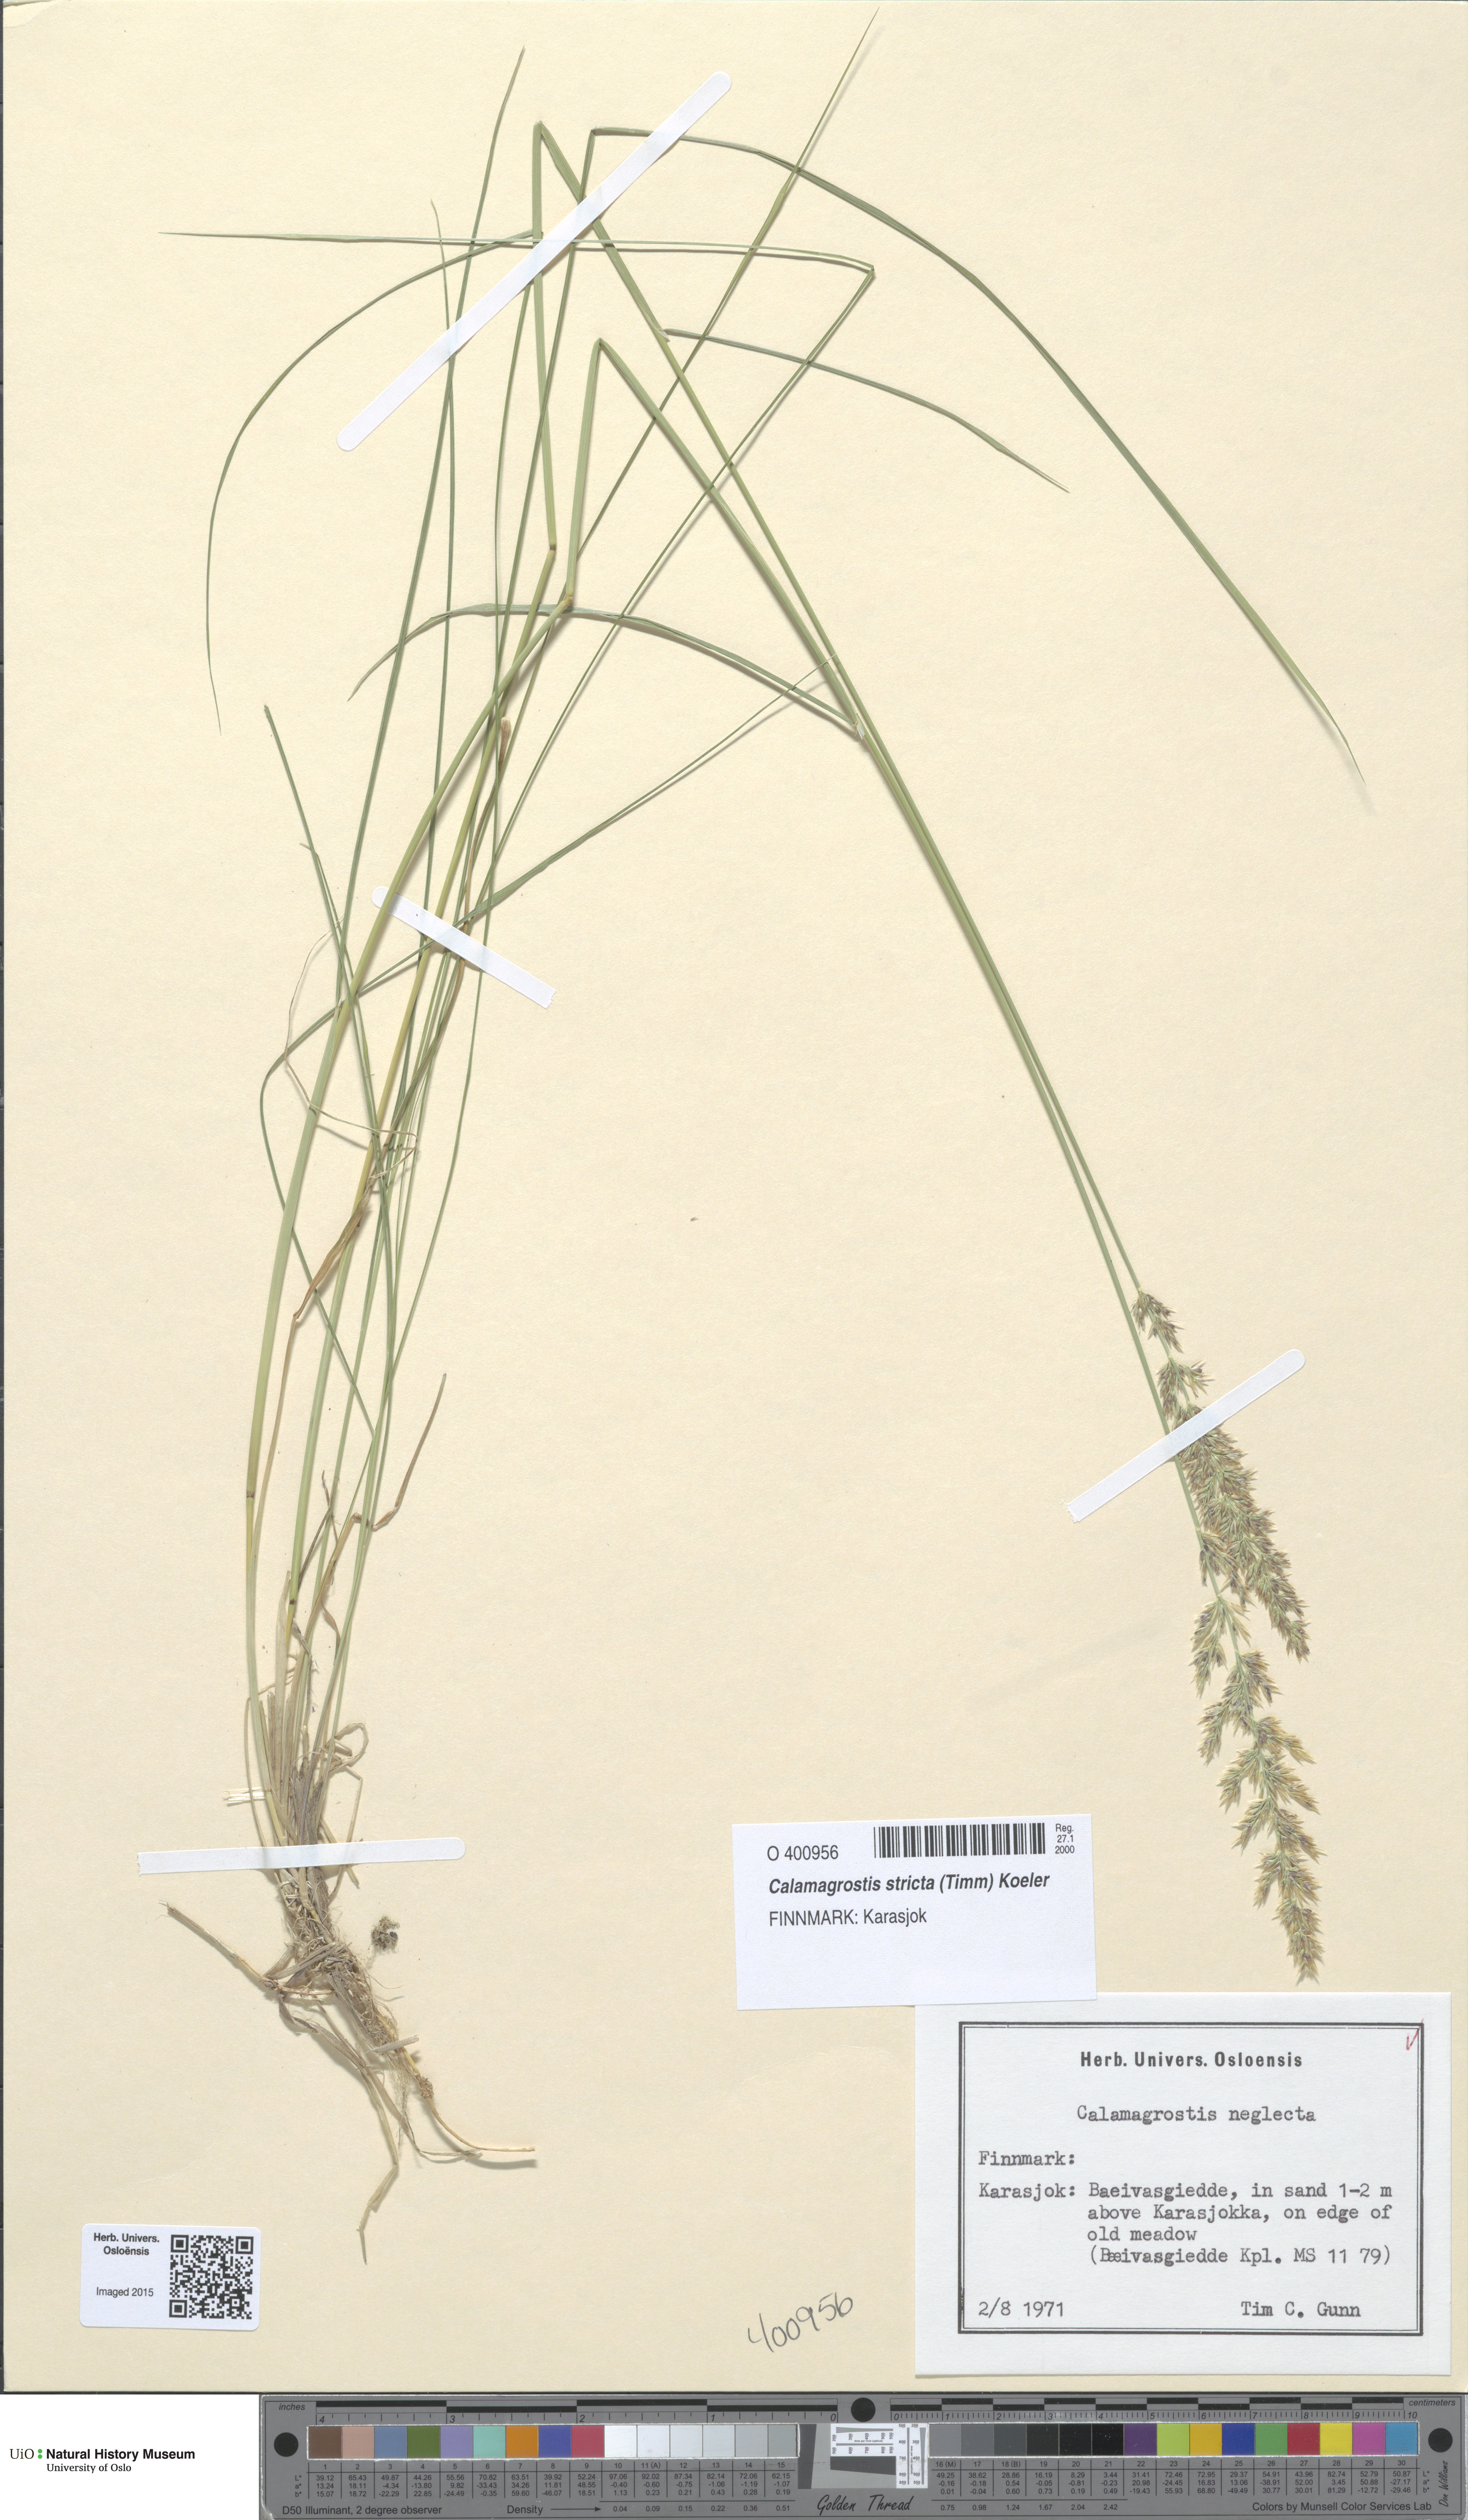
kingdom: Plantae
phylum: Tracheophyta
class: Liliopsida
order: Poales
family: Poaceae
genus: Achnatherum
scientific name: Achnatherum calamagrostis
